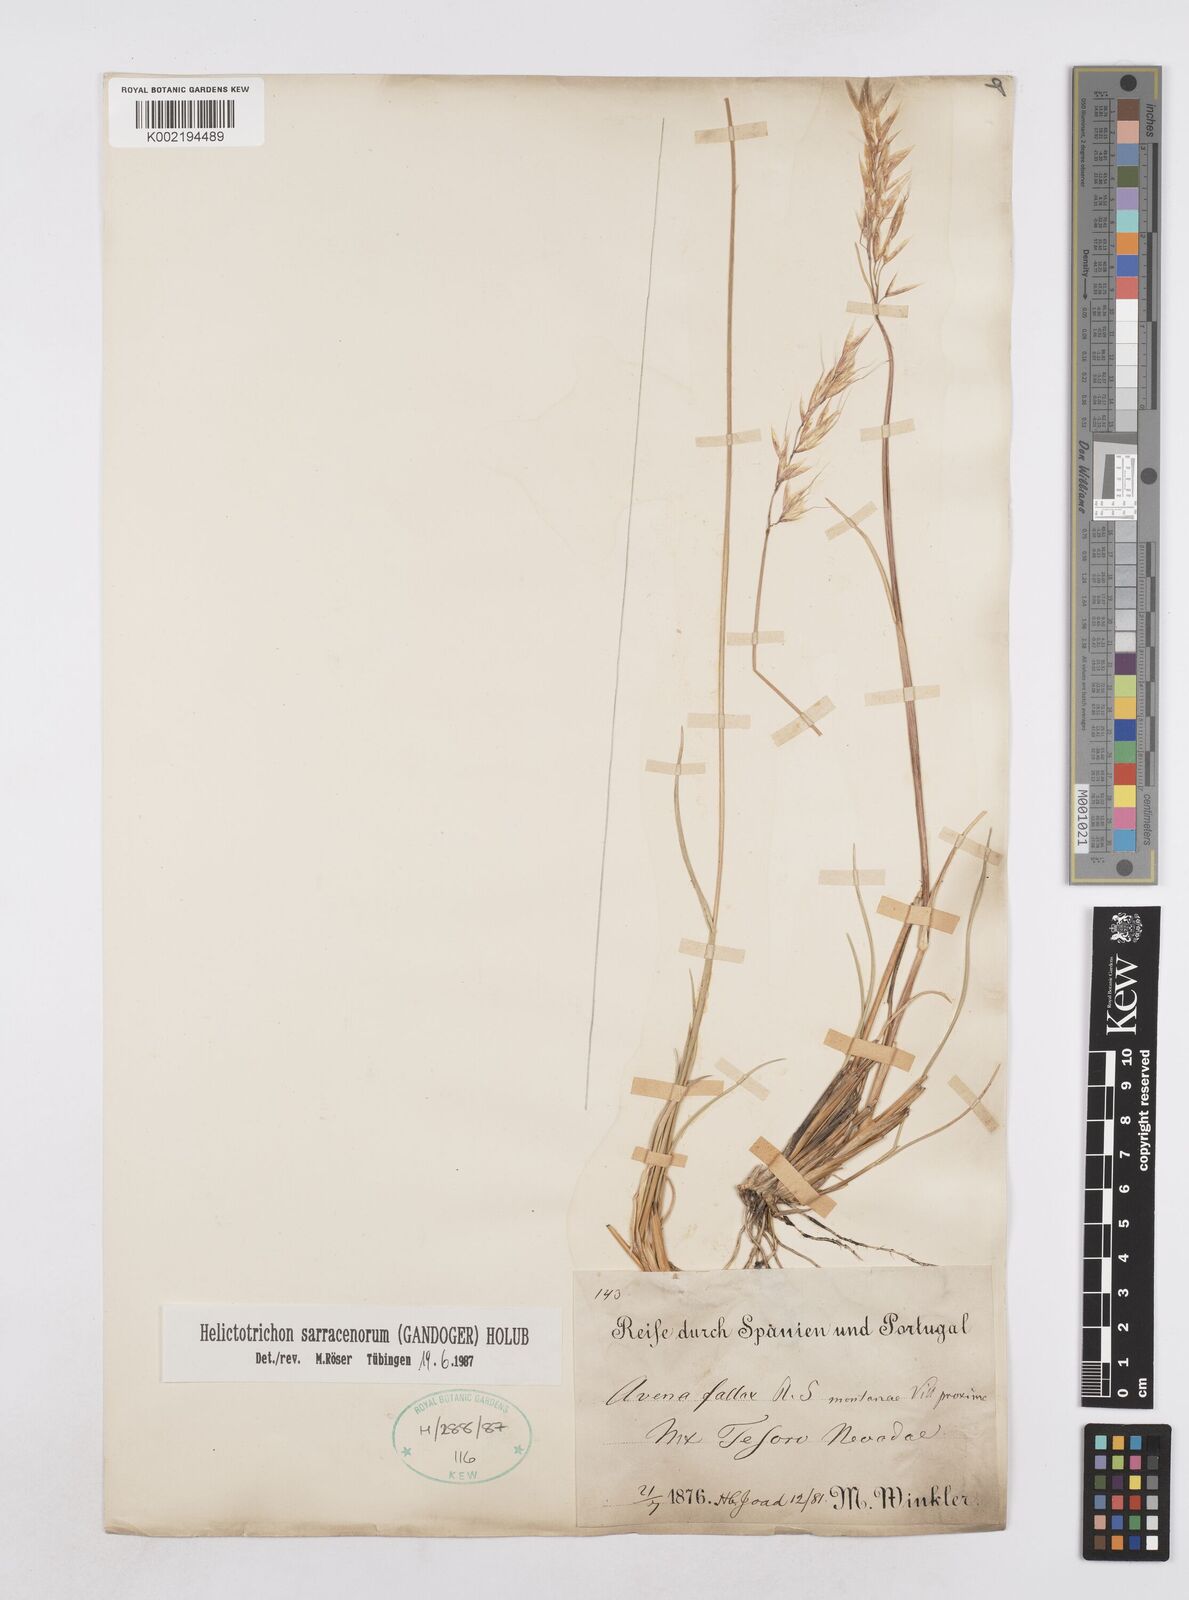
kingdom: Plantae
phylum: Tracheophyta
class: Liliopsida
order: Poales
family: Poaceae
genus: Helictotrichon
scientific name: Helictotrichon sarracenorum
